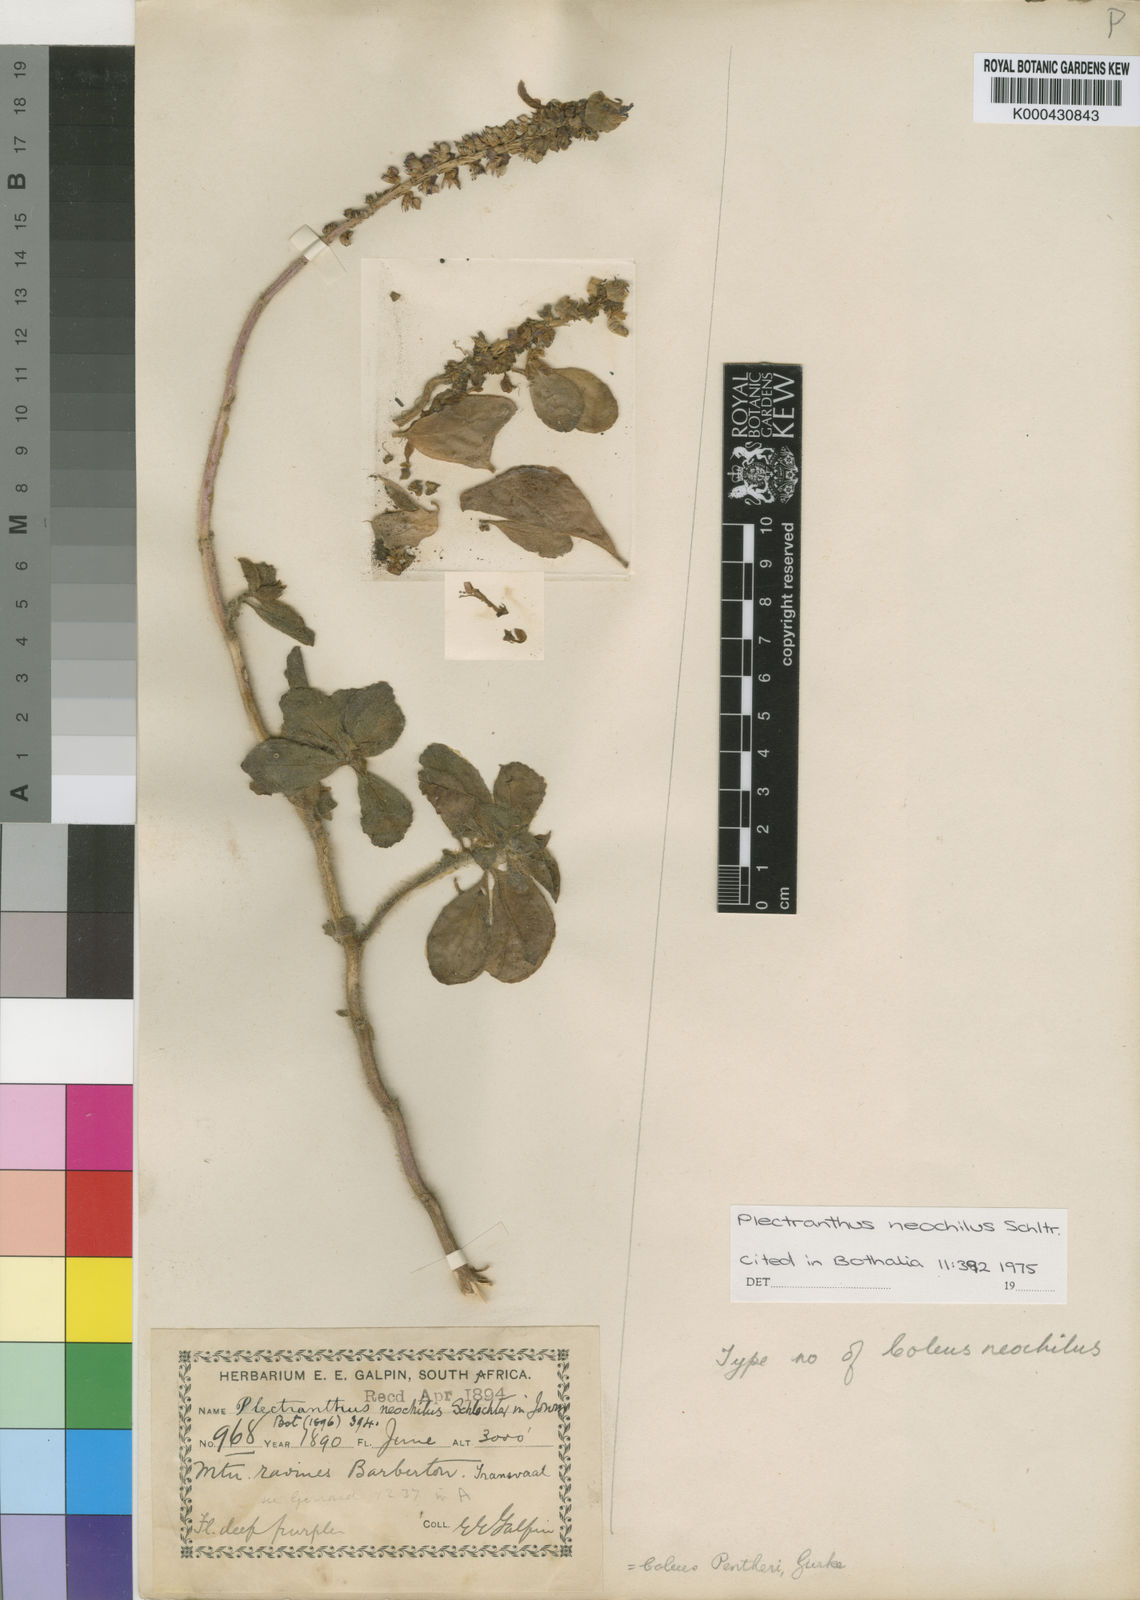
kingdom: Plantae
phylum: Tracheophyta
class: Magnoliopsida
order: Lamiales
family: Lamiaceae
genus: Coleus
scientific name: Coleus neochilus
